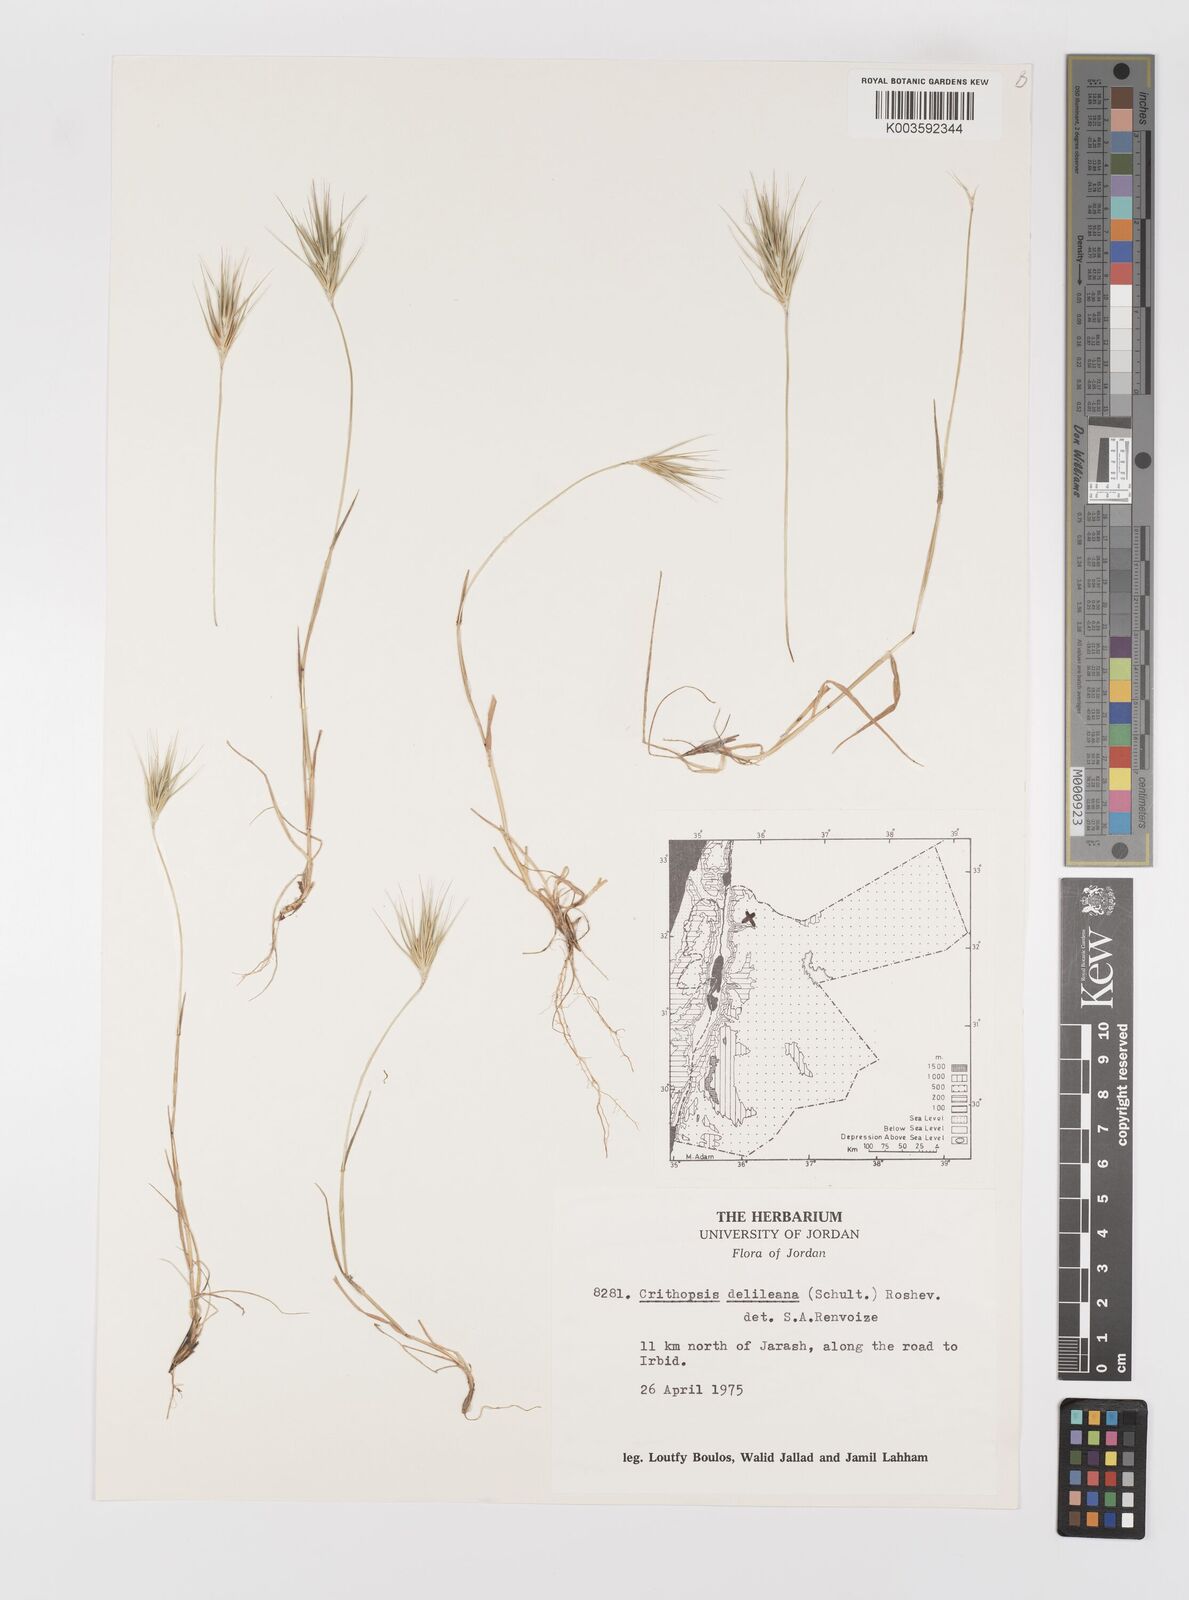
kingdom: Plantae
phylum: Tracheophyta
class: Liliopsida
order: Poales
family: Poaceae
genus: Crithopsis
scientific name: Crithopsis delileana
